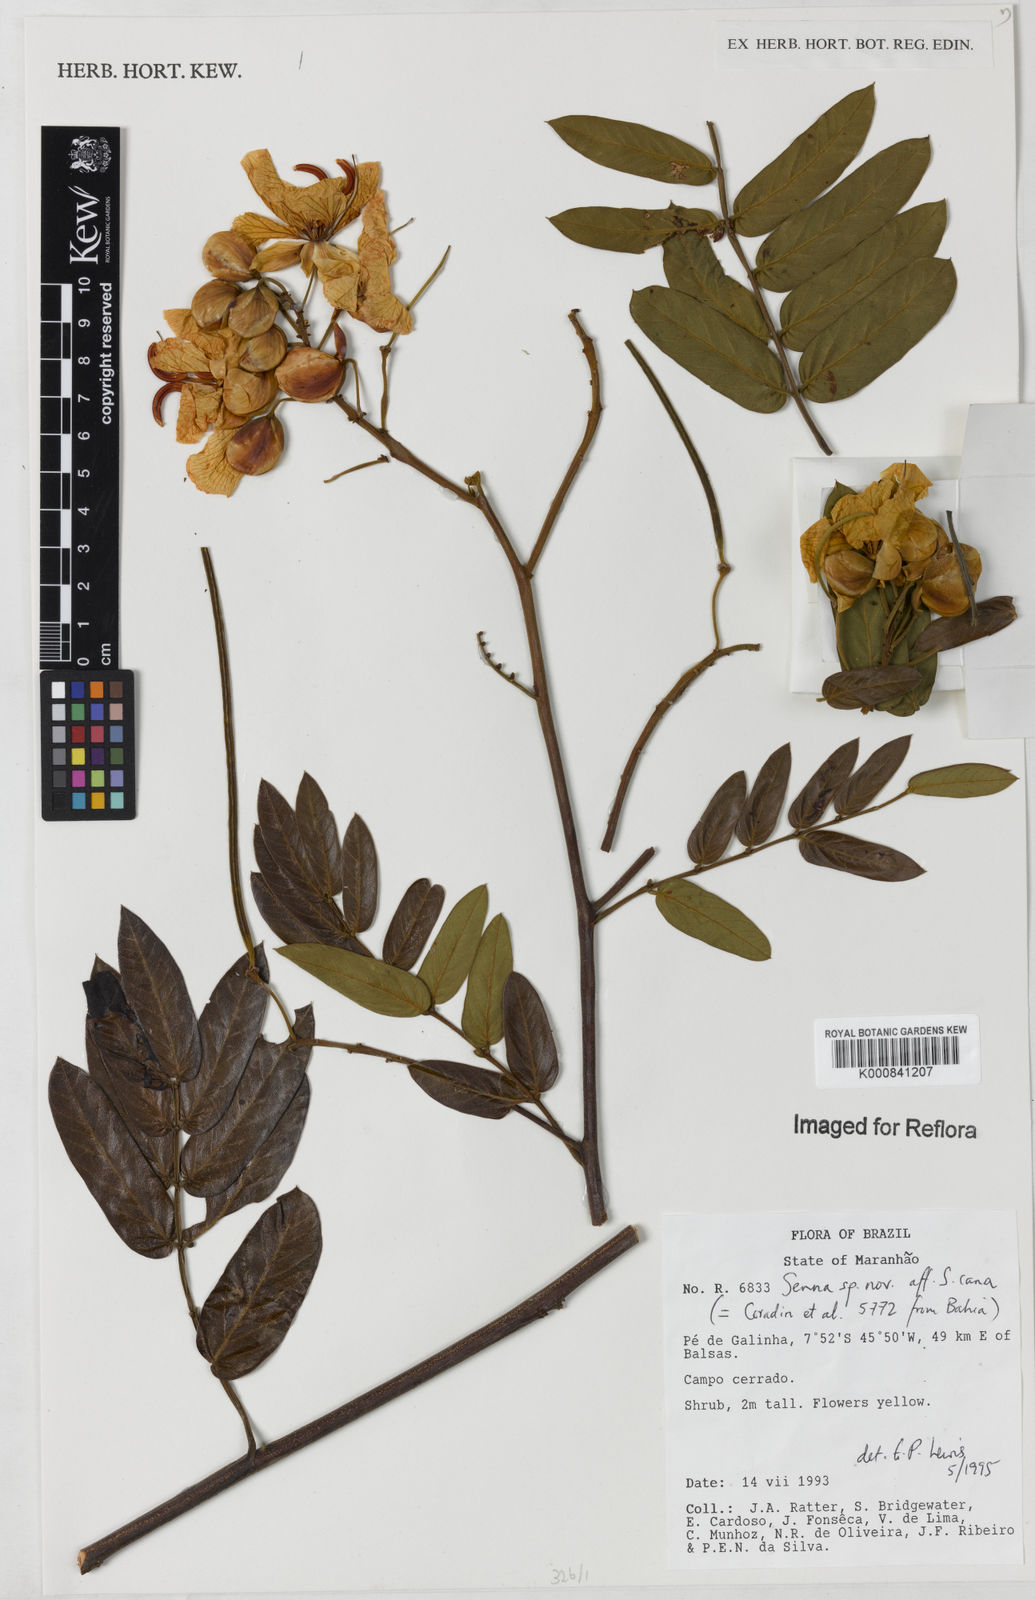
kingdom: Plantae
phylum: Tracheophyta
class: Magnoliopsida
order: Fabales
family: Fabaceae
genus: Senna
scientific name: Senna velutina
